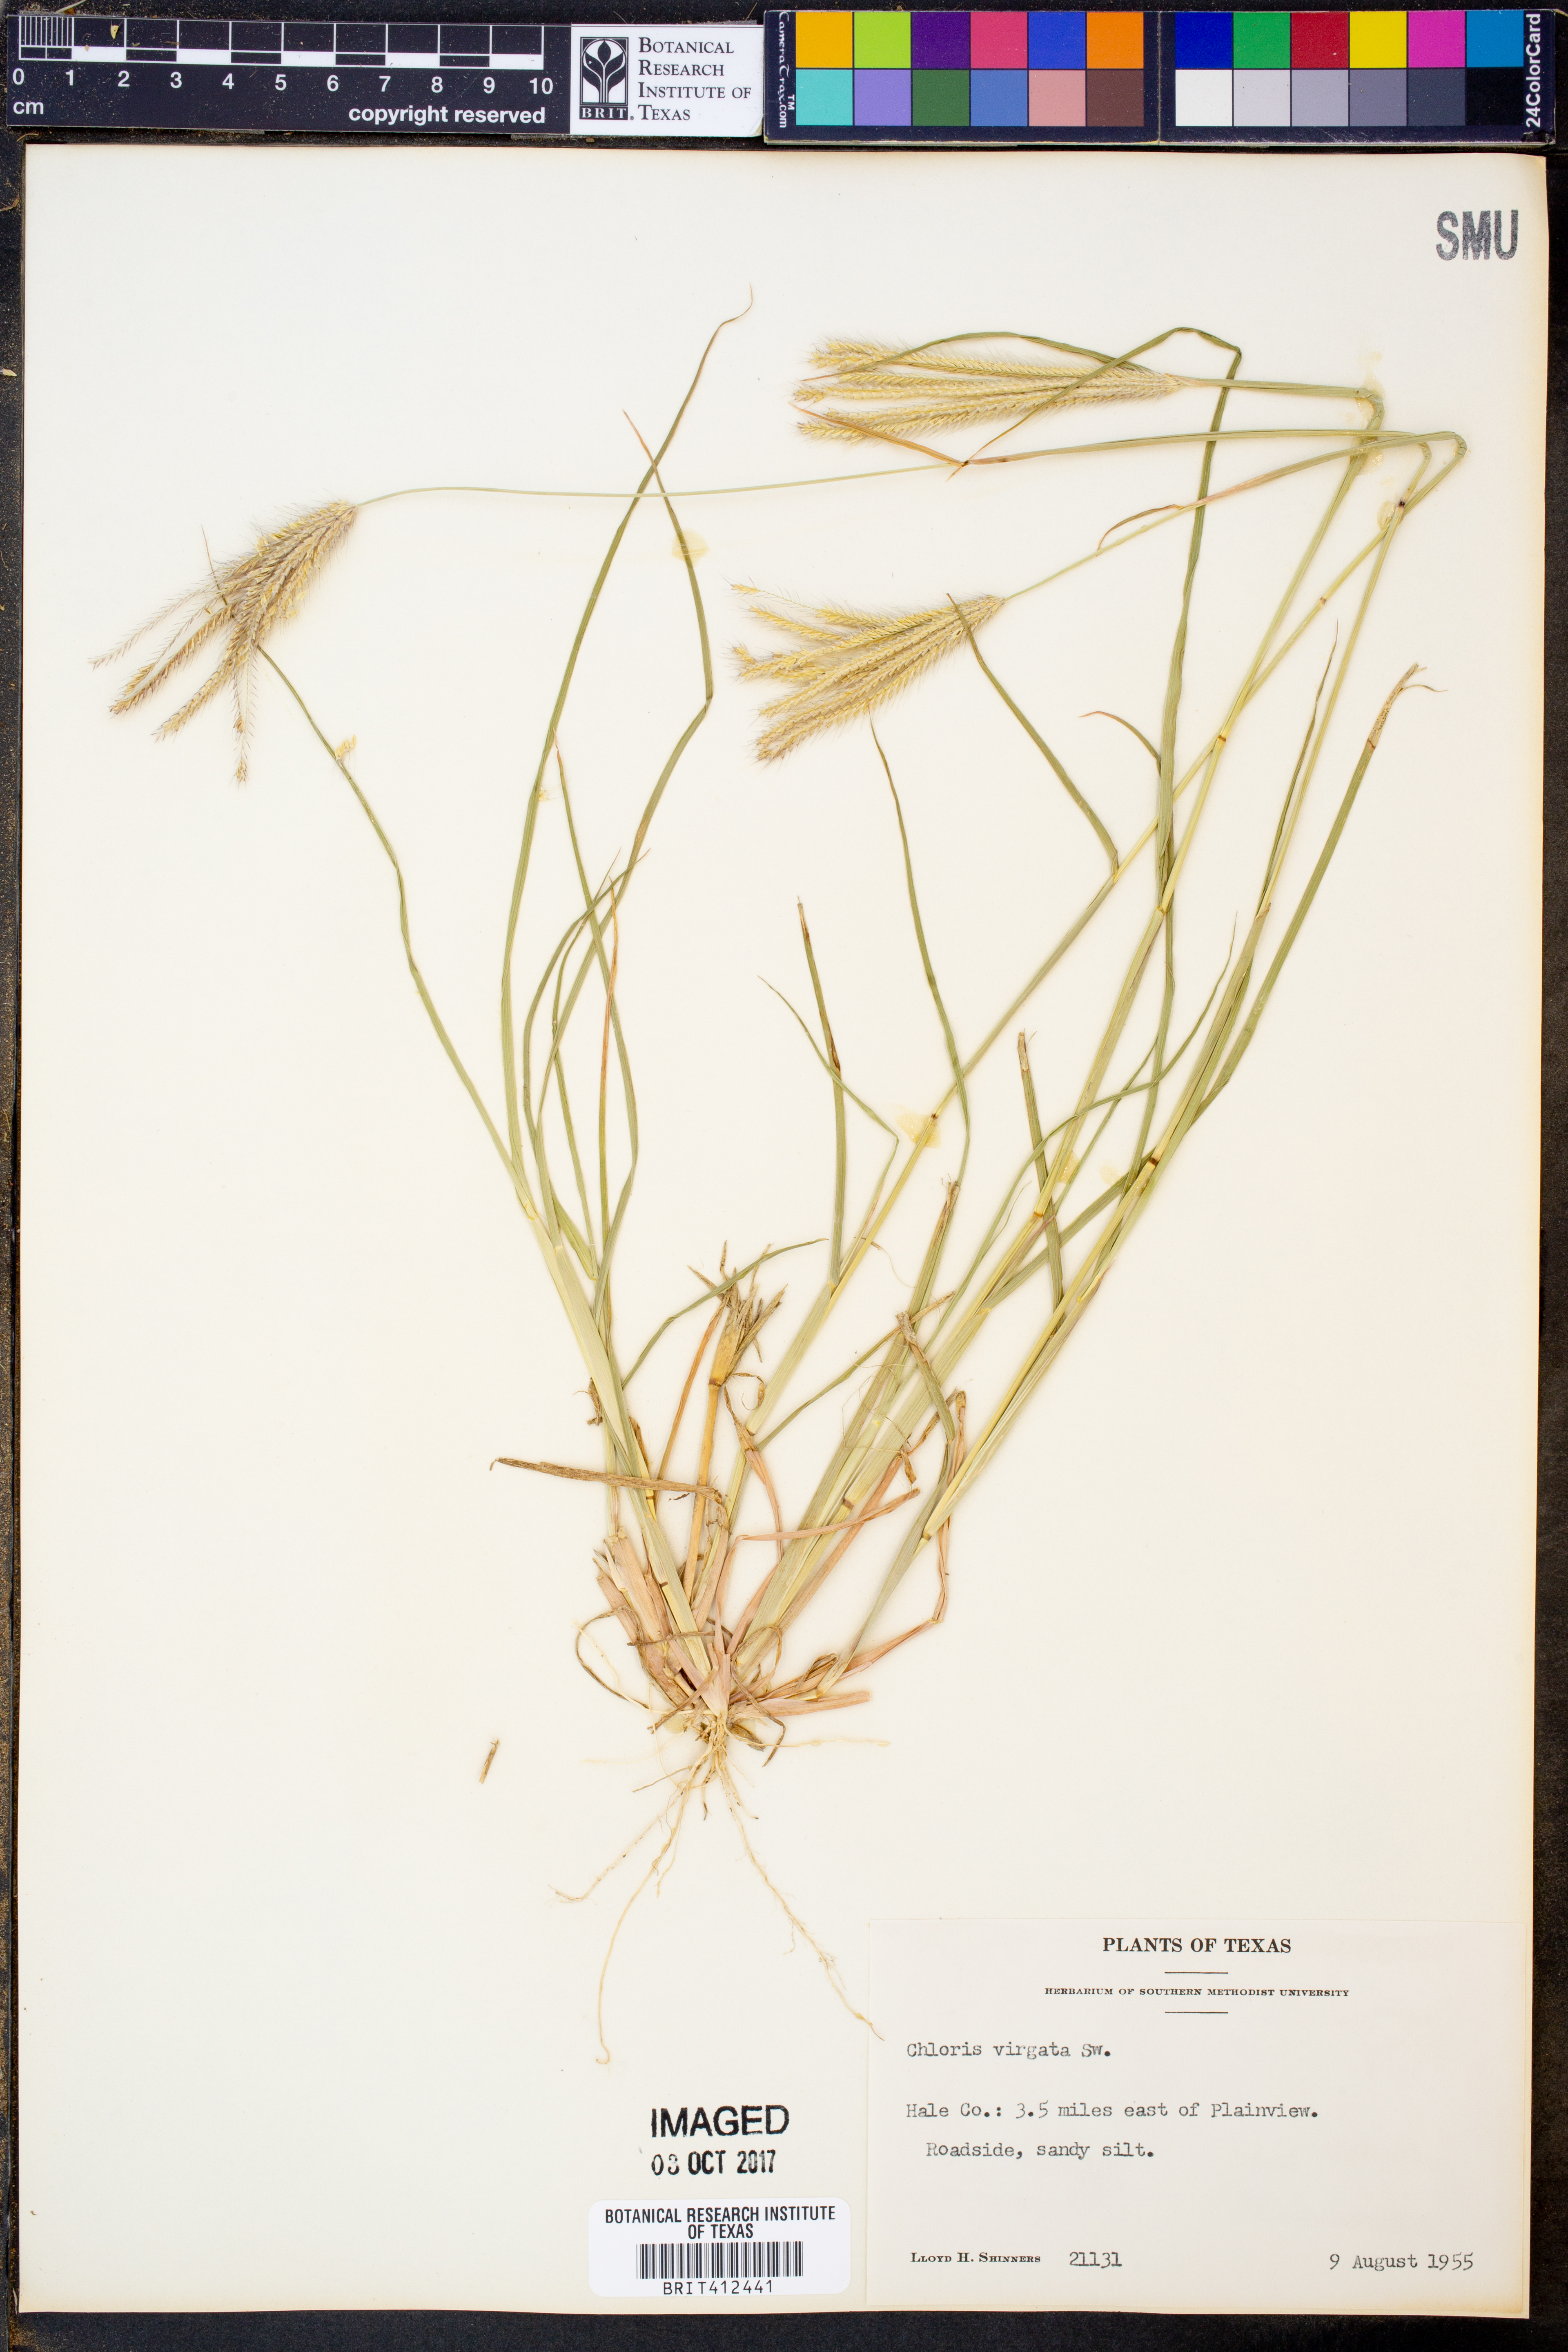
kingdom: Plantae
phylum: Tracheophyta
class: Liliopsida
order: Poales
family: Poaceae
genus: Chloris
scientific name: Chloris virgata
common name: Feathery rhodes-grass
